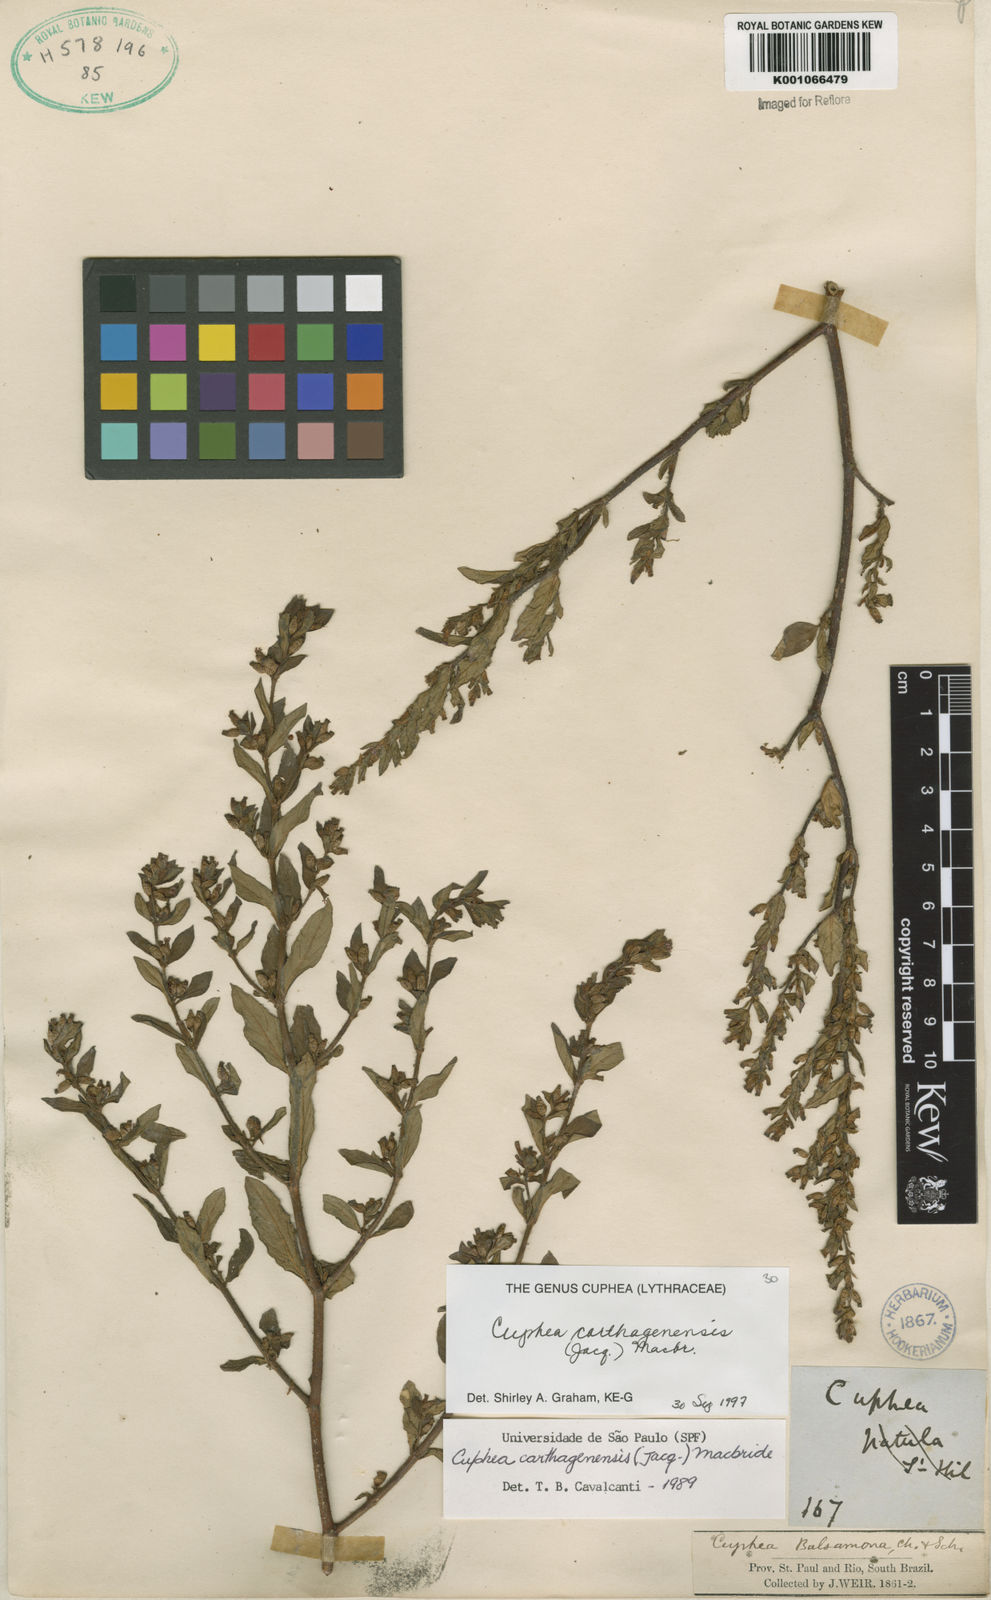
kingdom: Plantae
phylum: Tracheophyta
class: Magnoliopsida
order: Myrtales
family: Lythraceae
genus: Cuphea
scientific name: Cuphea carthagenensis
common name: Colombian waxweed
